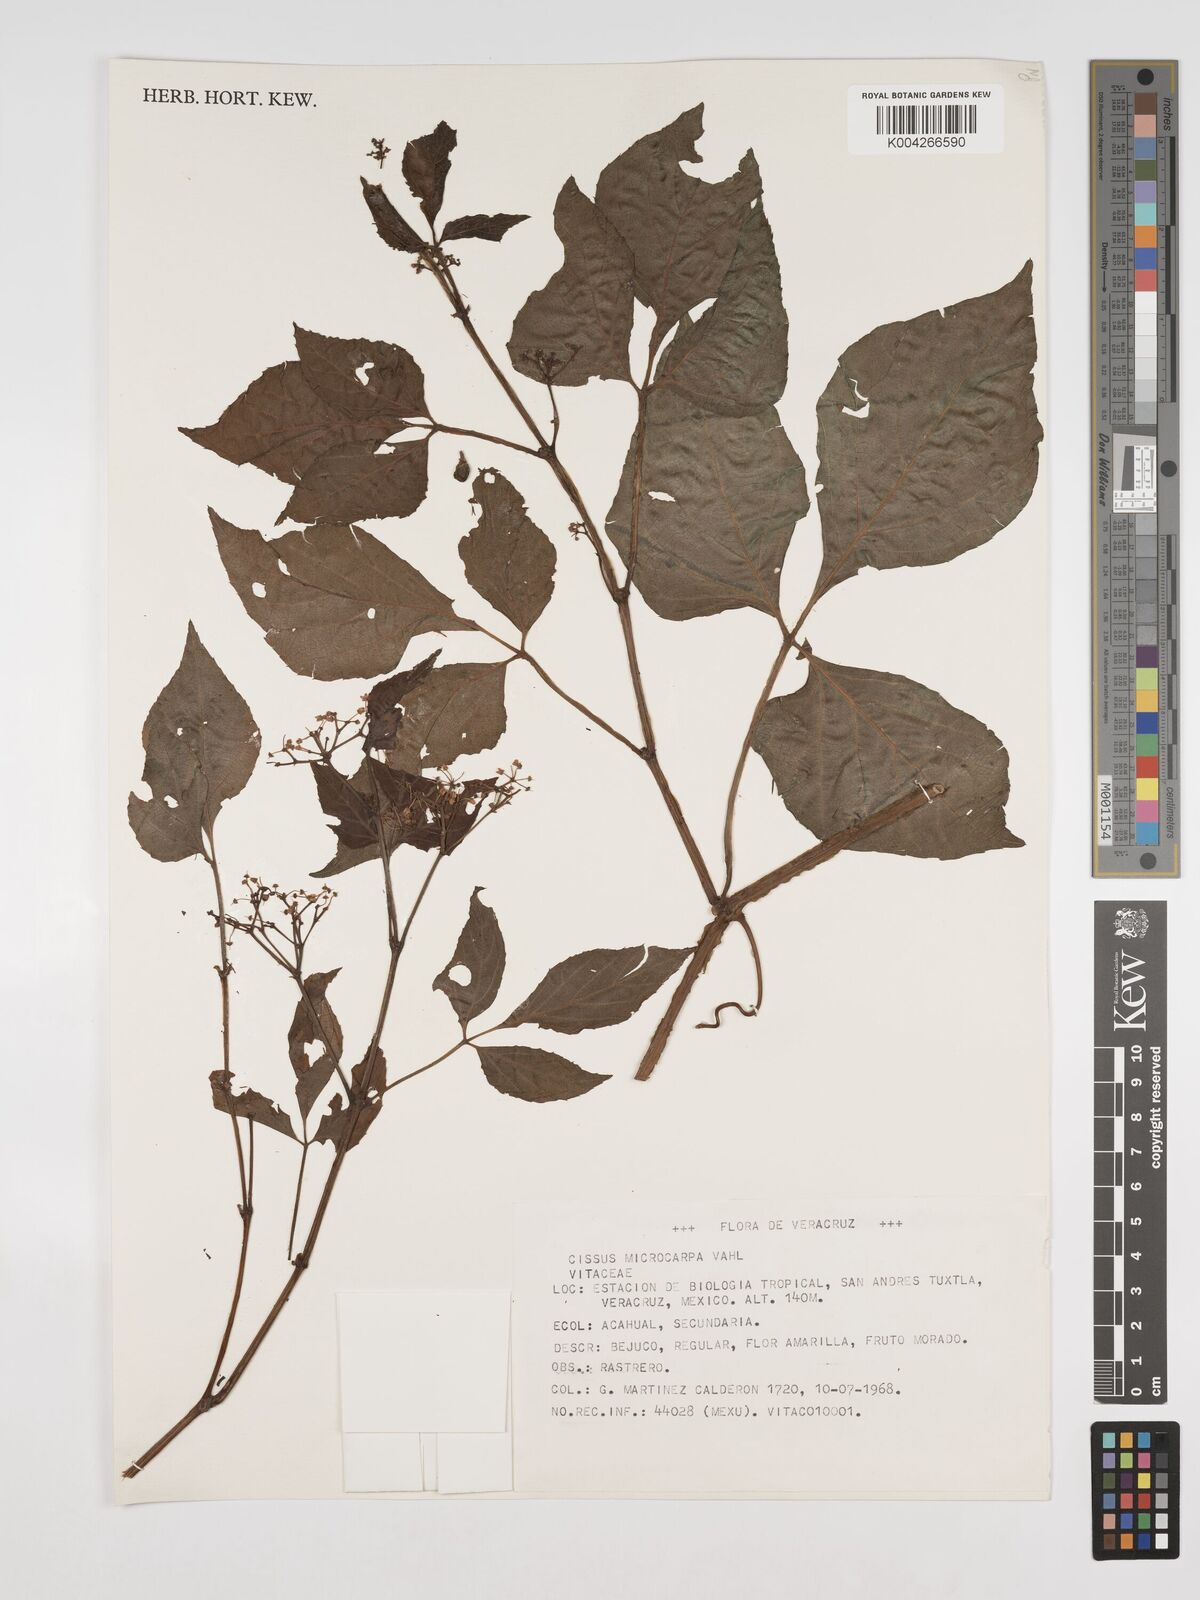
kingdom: Plantae
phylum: Tracheophyta
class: Magnoliopsida
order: Vitales
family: Vitaceae
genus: Cissus
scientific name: Cissus microcarpa
